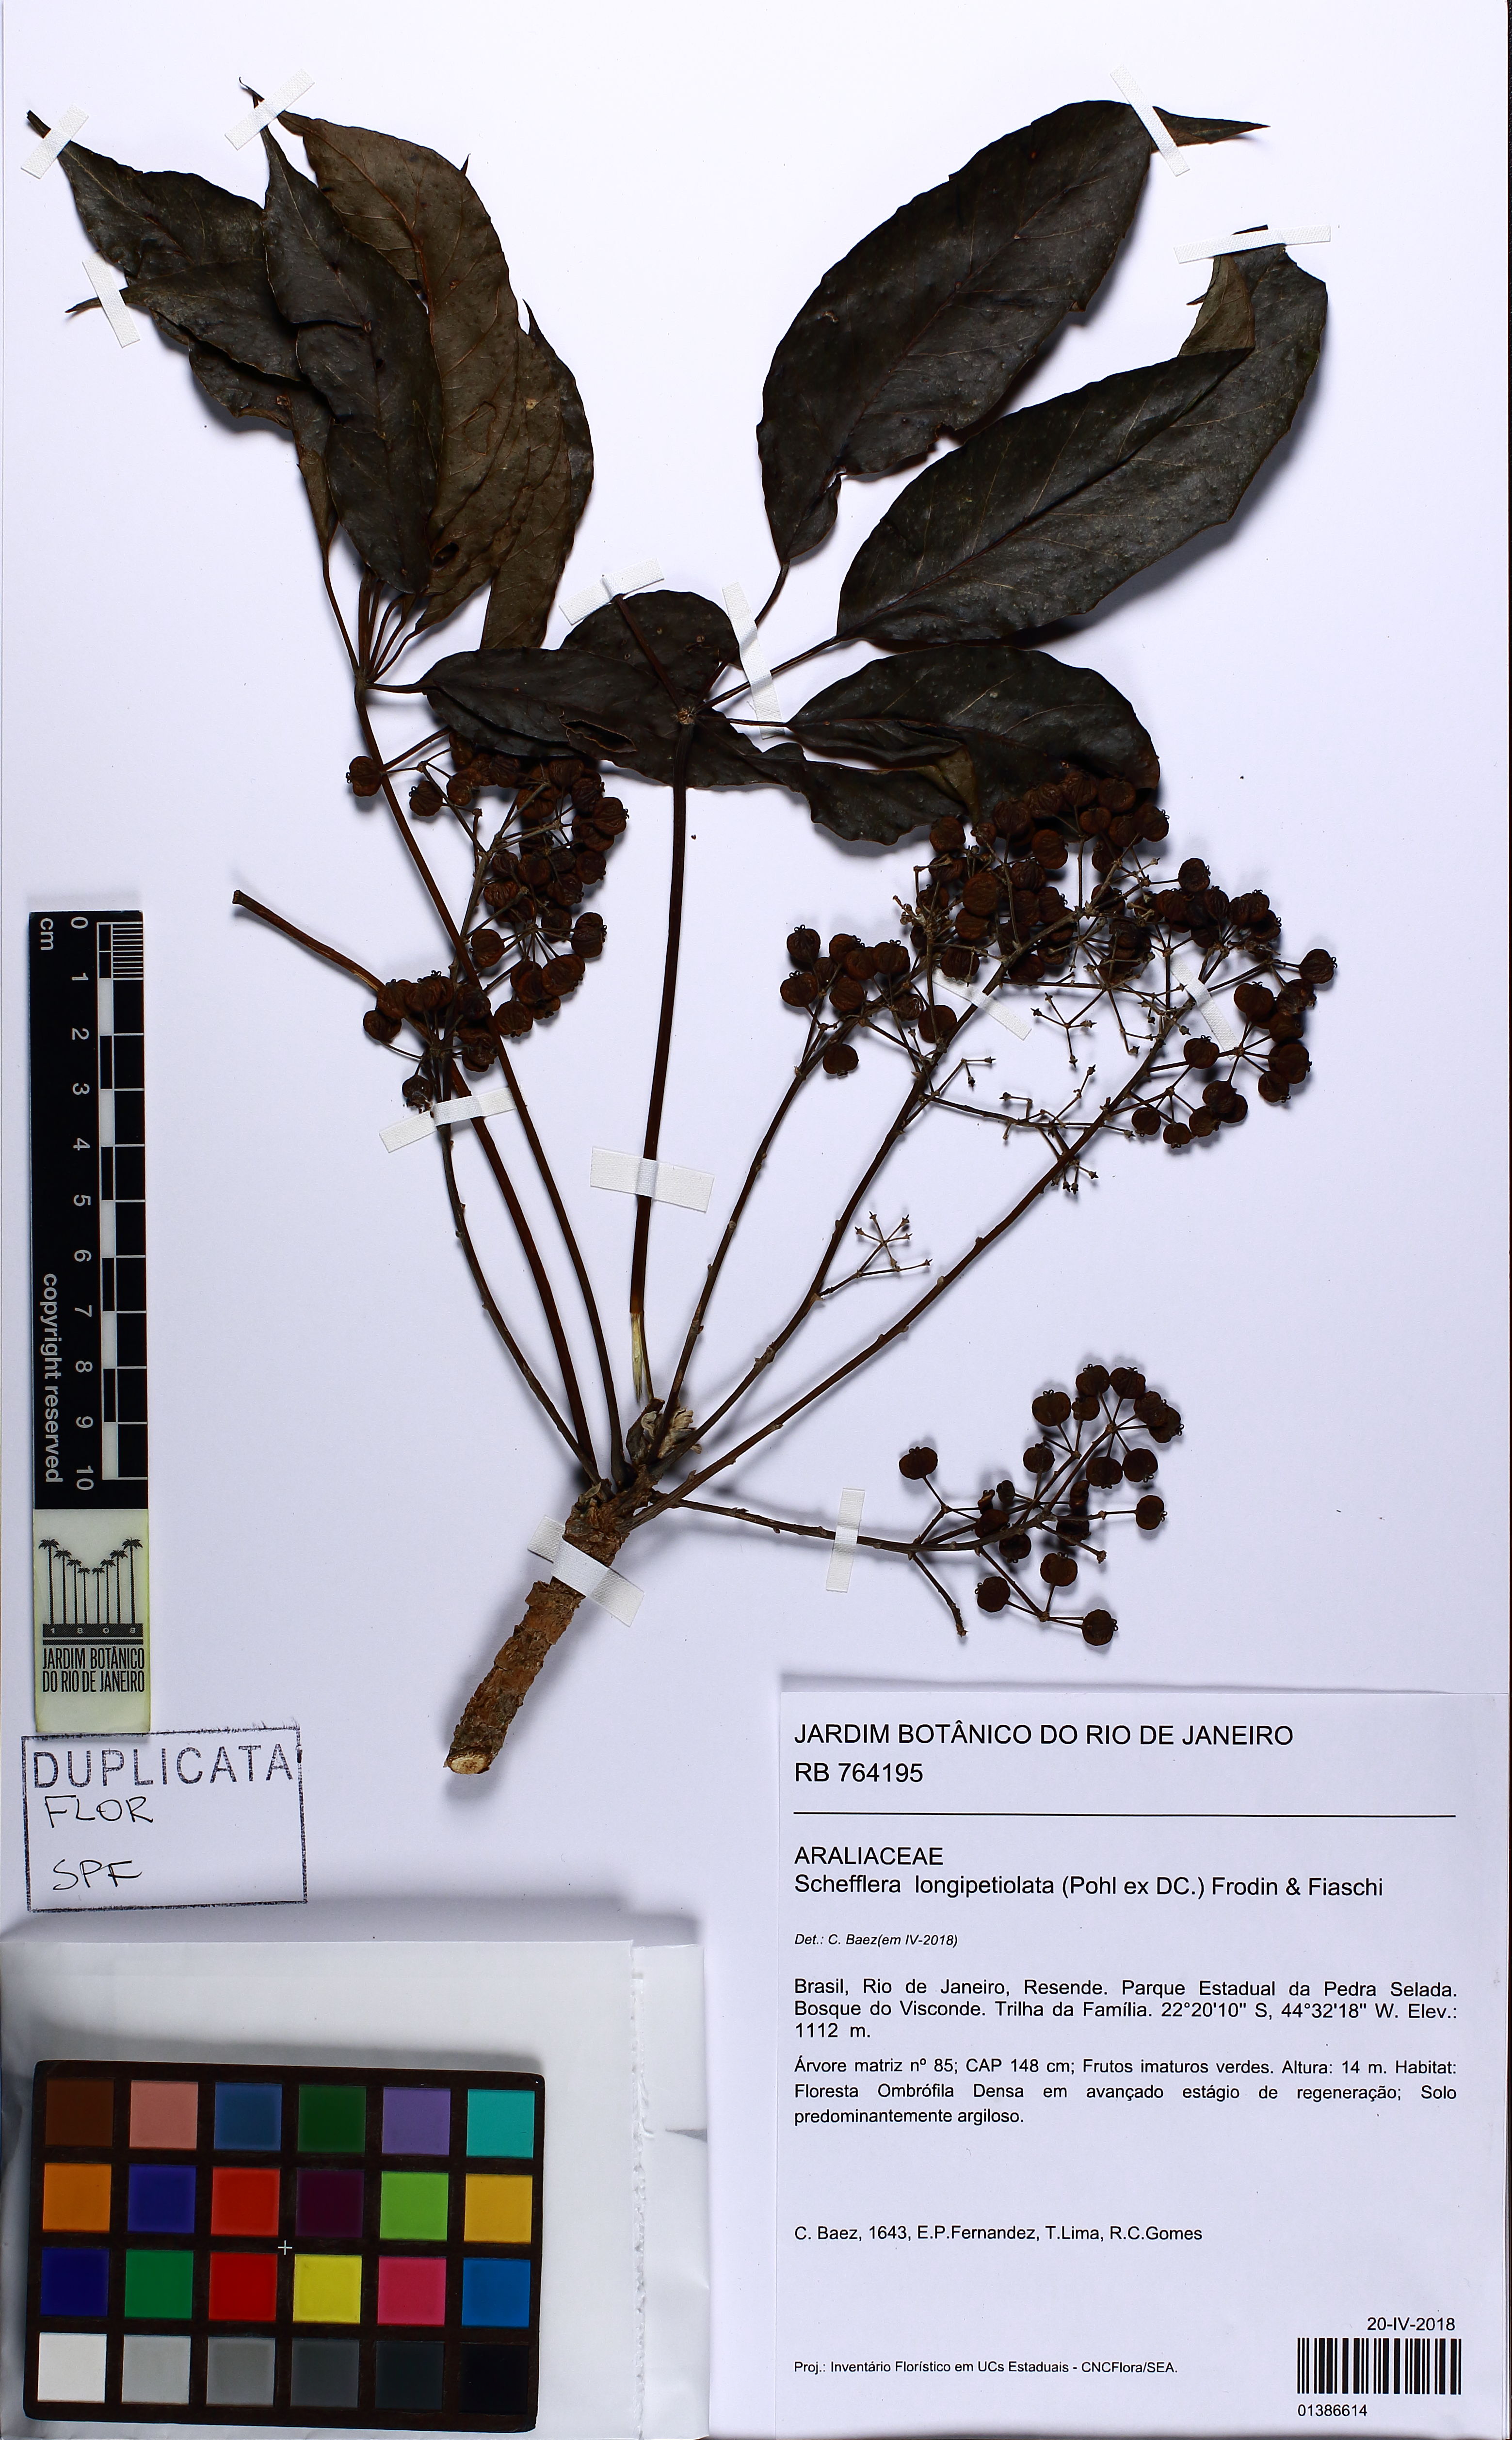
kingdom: Plantae
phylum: Tracheophyta
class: Magnoliopsida
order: Apiales
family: Araliaceae
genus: Didymopanax
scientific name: Didymopanax longepetiolatus
